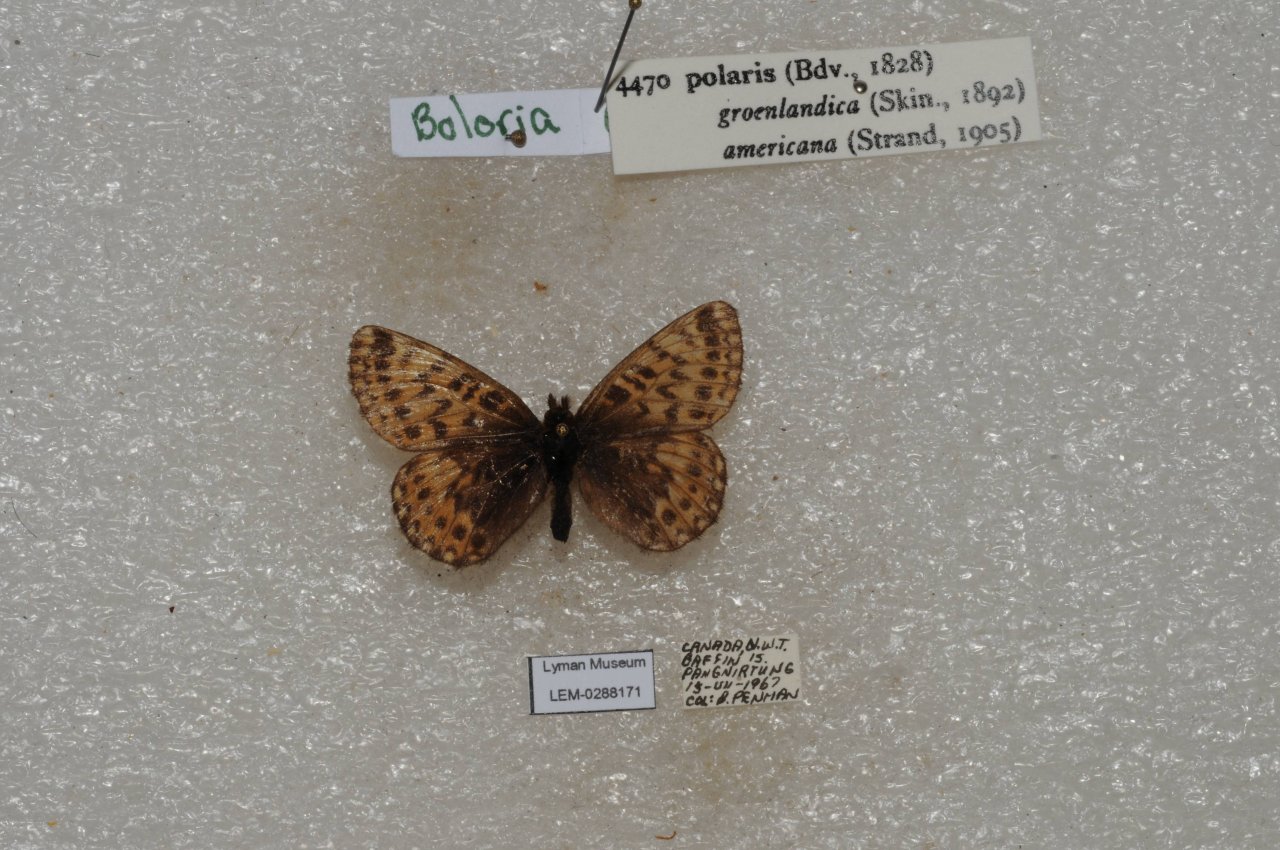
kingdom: Animalia
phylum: Arthropoda
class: Insecta
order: Lepidoptera
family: Nymphalidae
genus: Clossiana
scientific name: Clossiana polaris
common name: Polaris Fritillary
